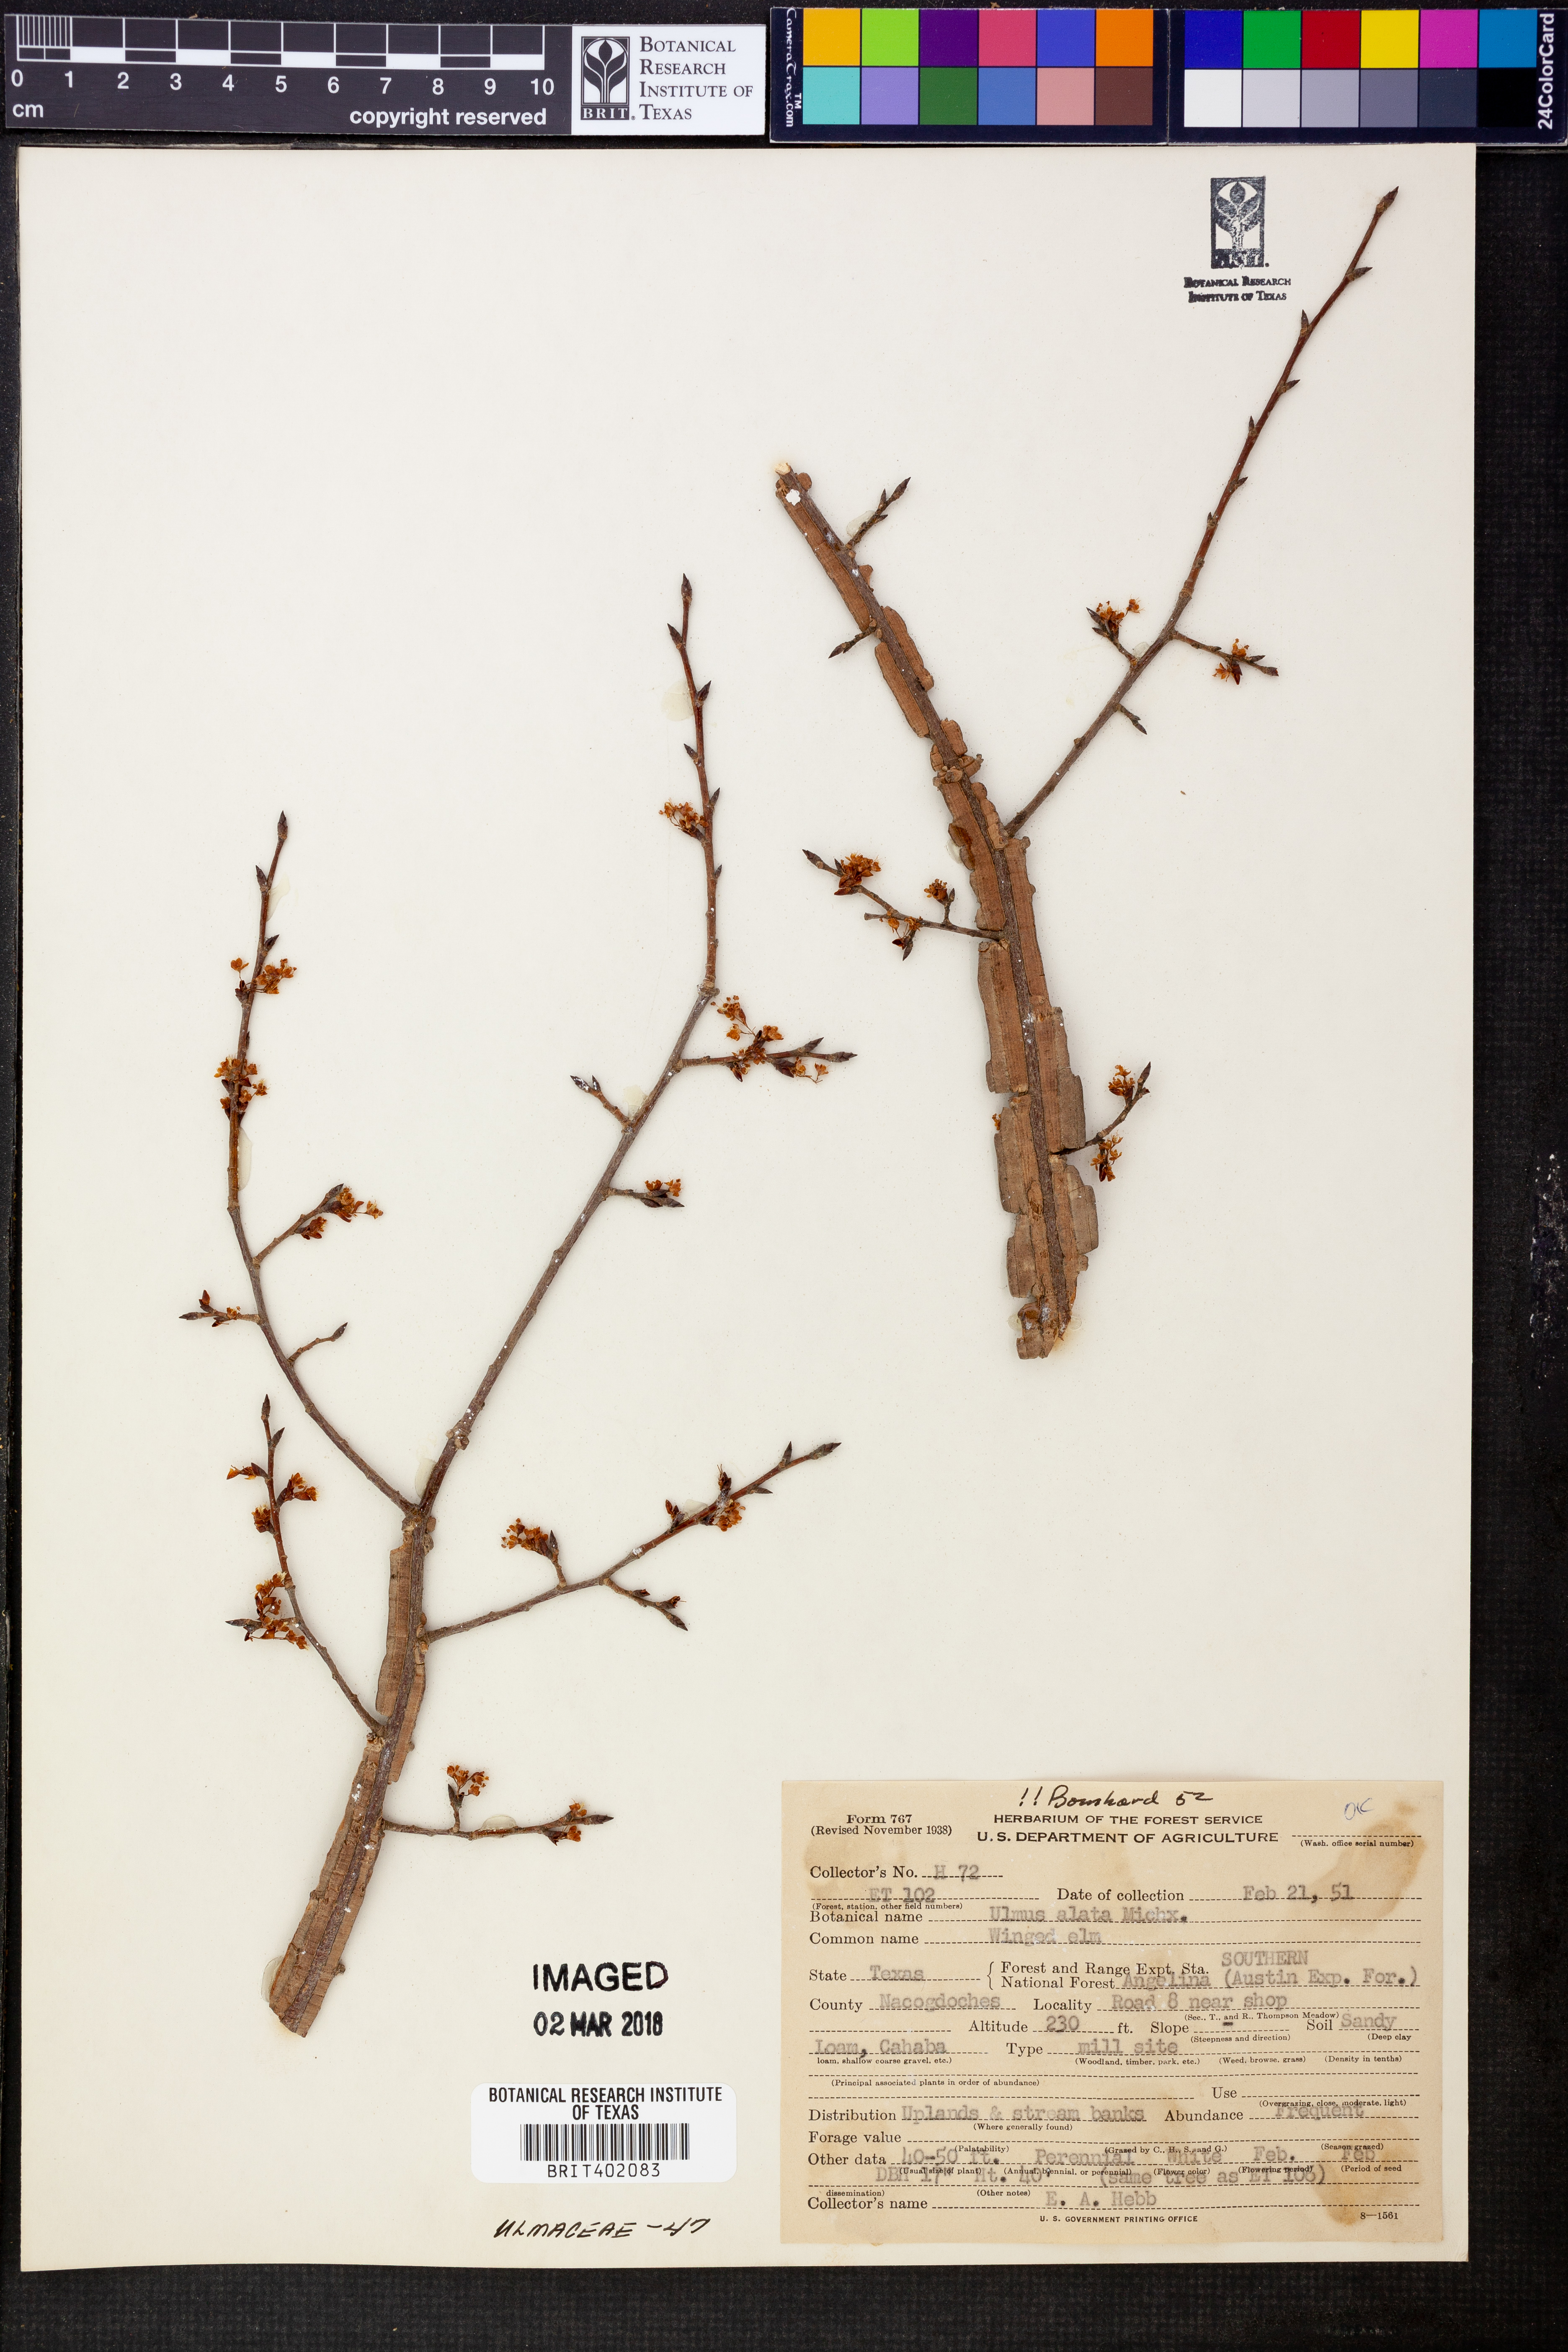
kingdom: Plantae
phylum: Tracheophyta
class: Magnoliopsida
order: Rosales
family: Ulmaceae
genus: Ulmus
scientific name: Ulmus alata
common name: Winged elm
